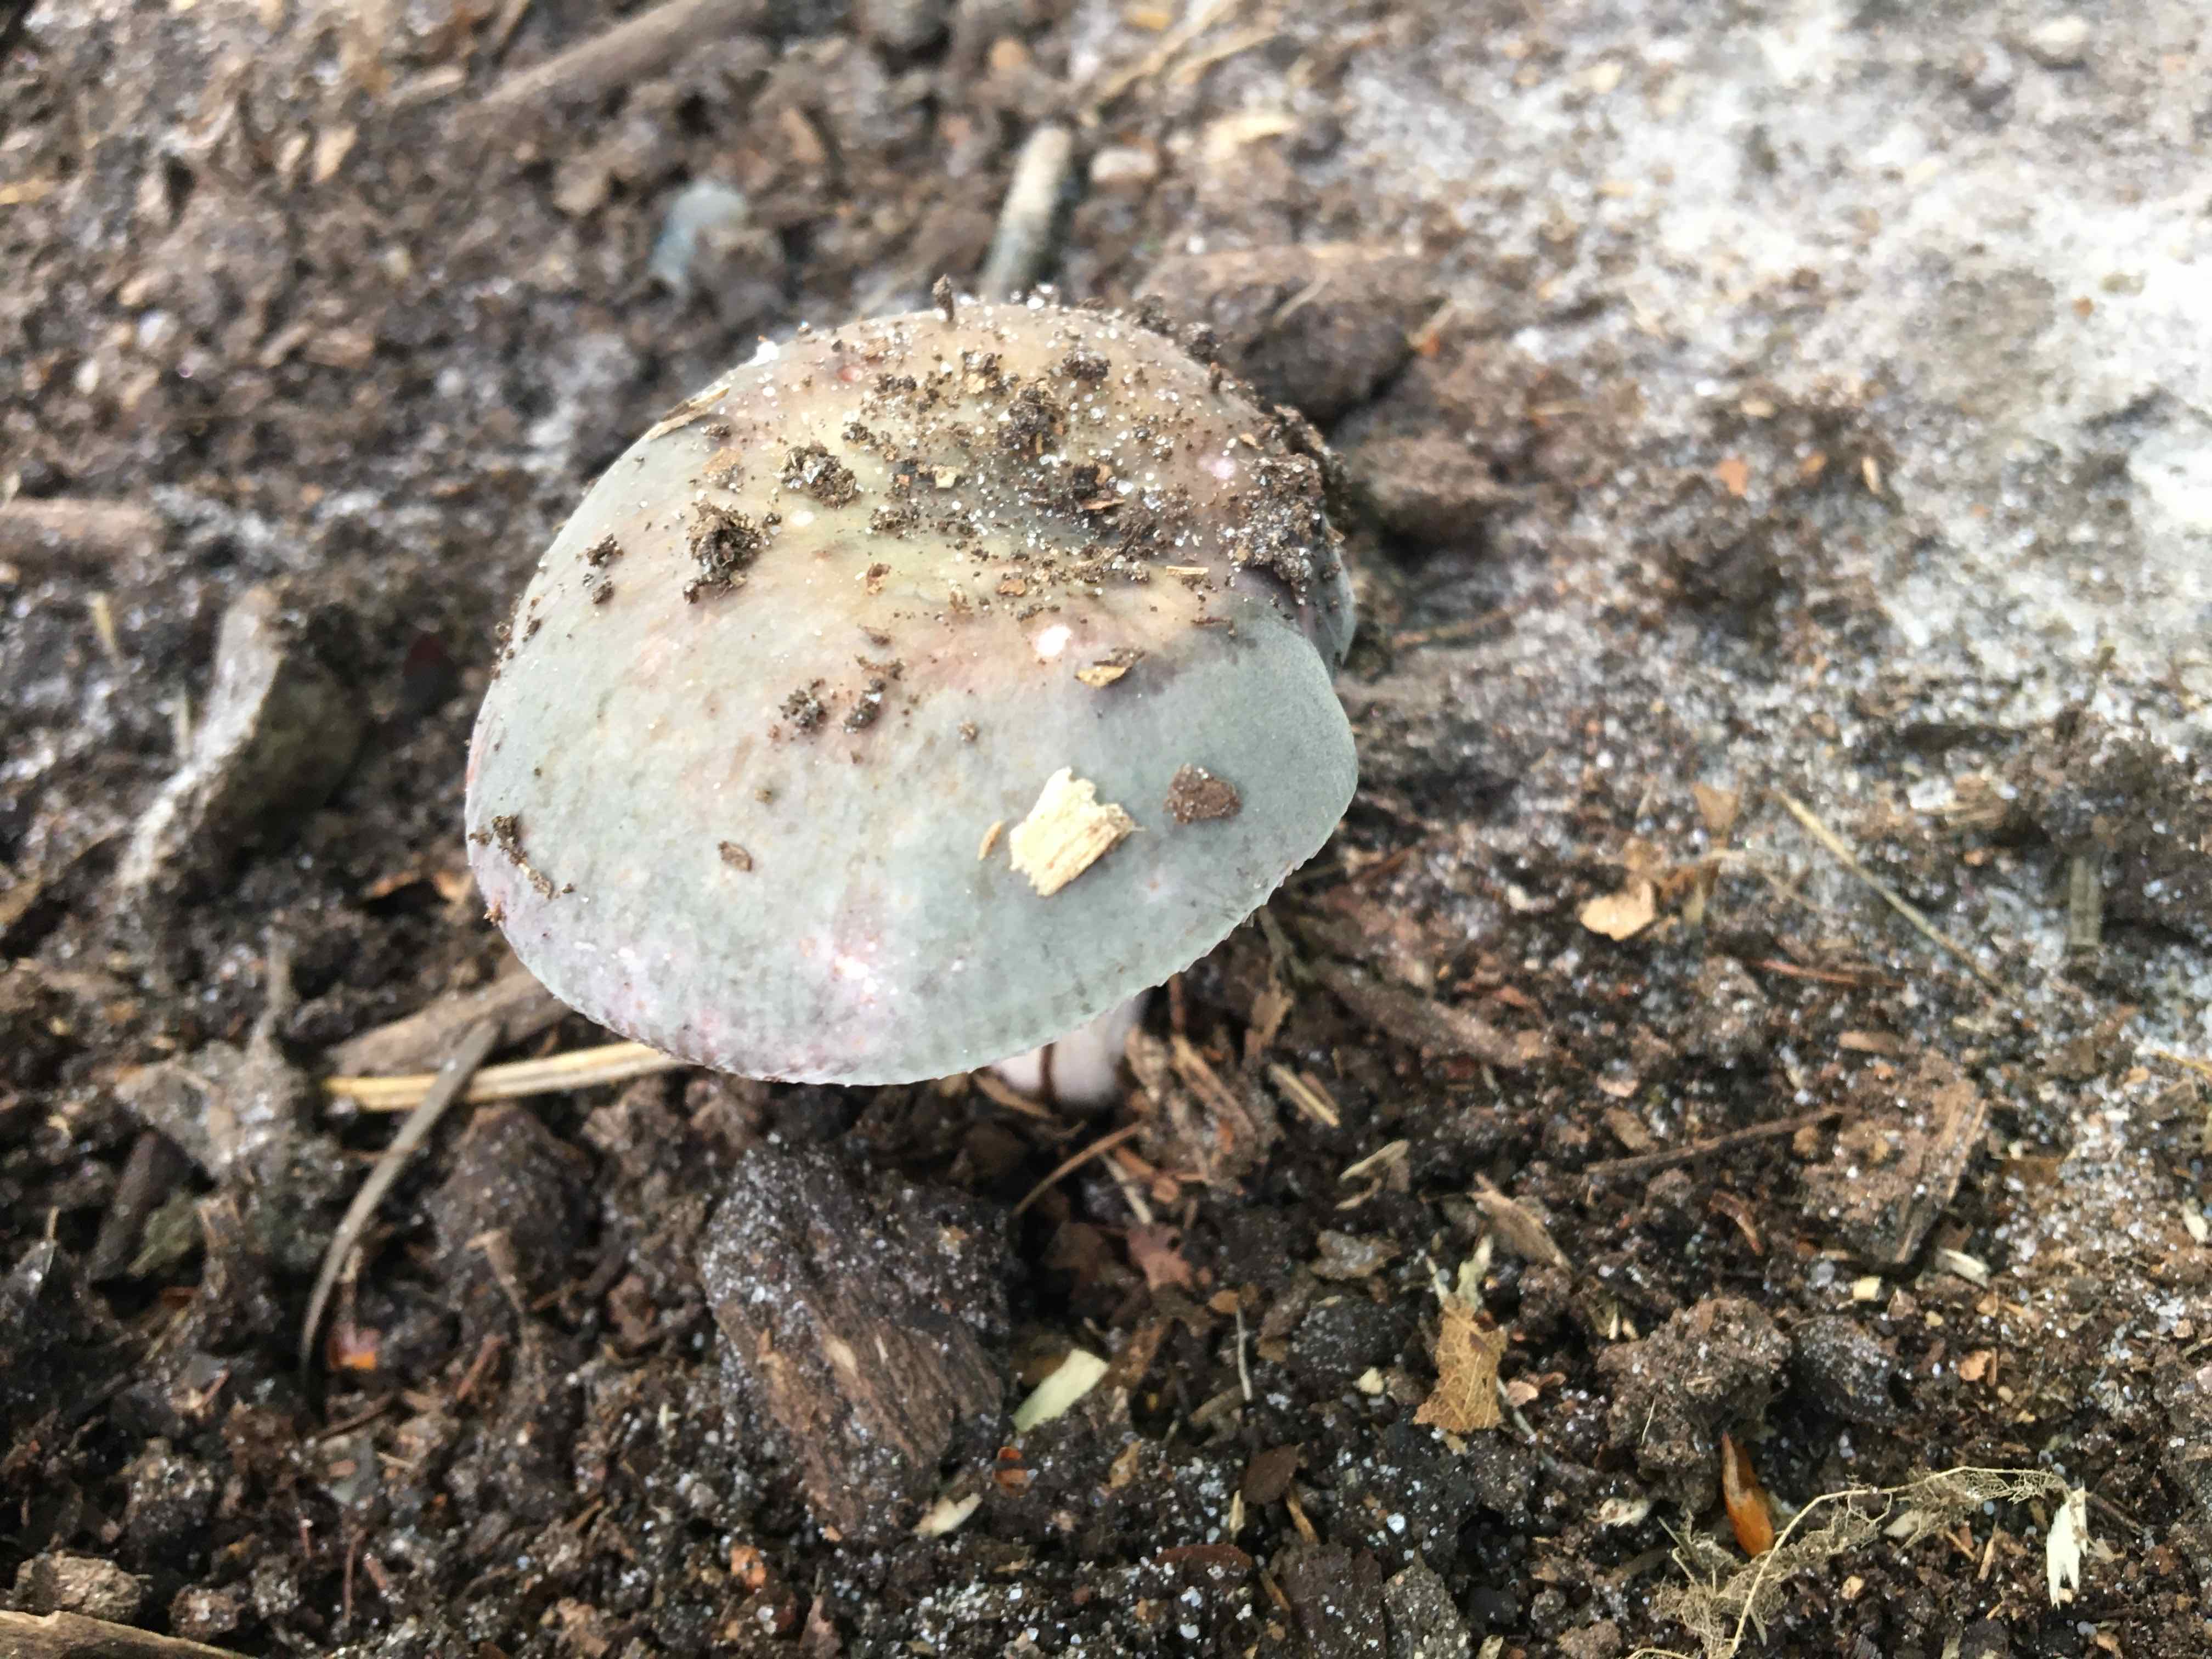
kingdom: Fungi
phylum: Basidiomycota
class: Agaricomycetes
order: Russulales
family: Russulaceae
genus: Russula
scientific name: Russula
